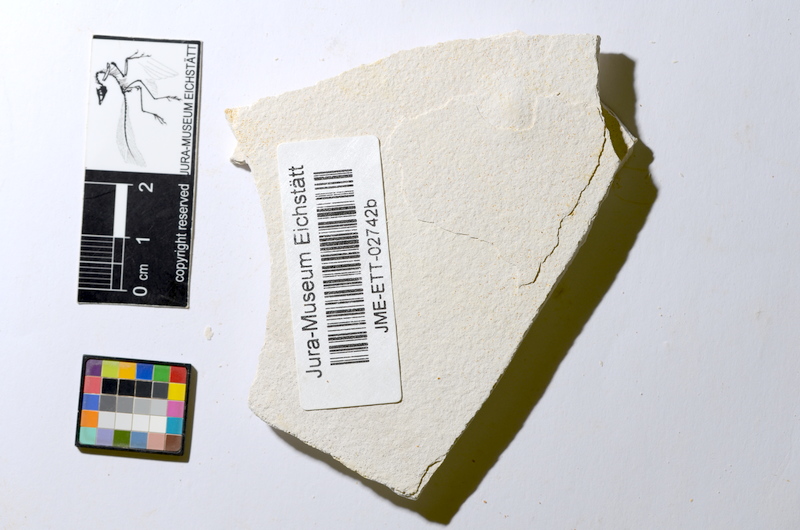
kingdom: Animalia
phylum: Chordata
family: Ascalaboidae
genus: Ebertichthys
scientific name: Ebertichthys ettlingensis
